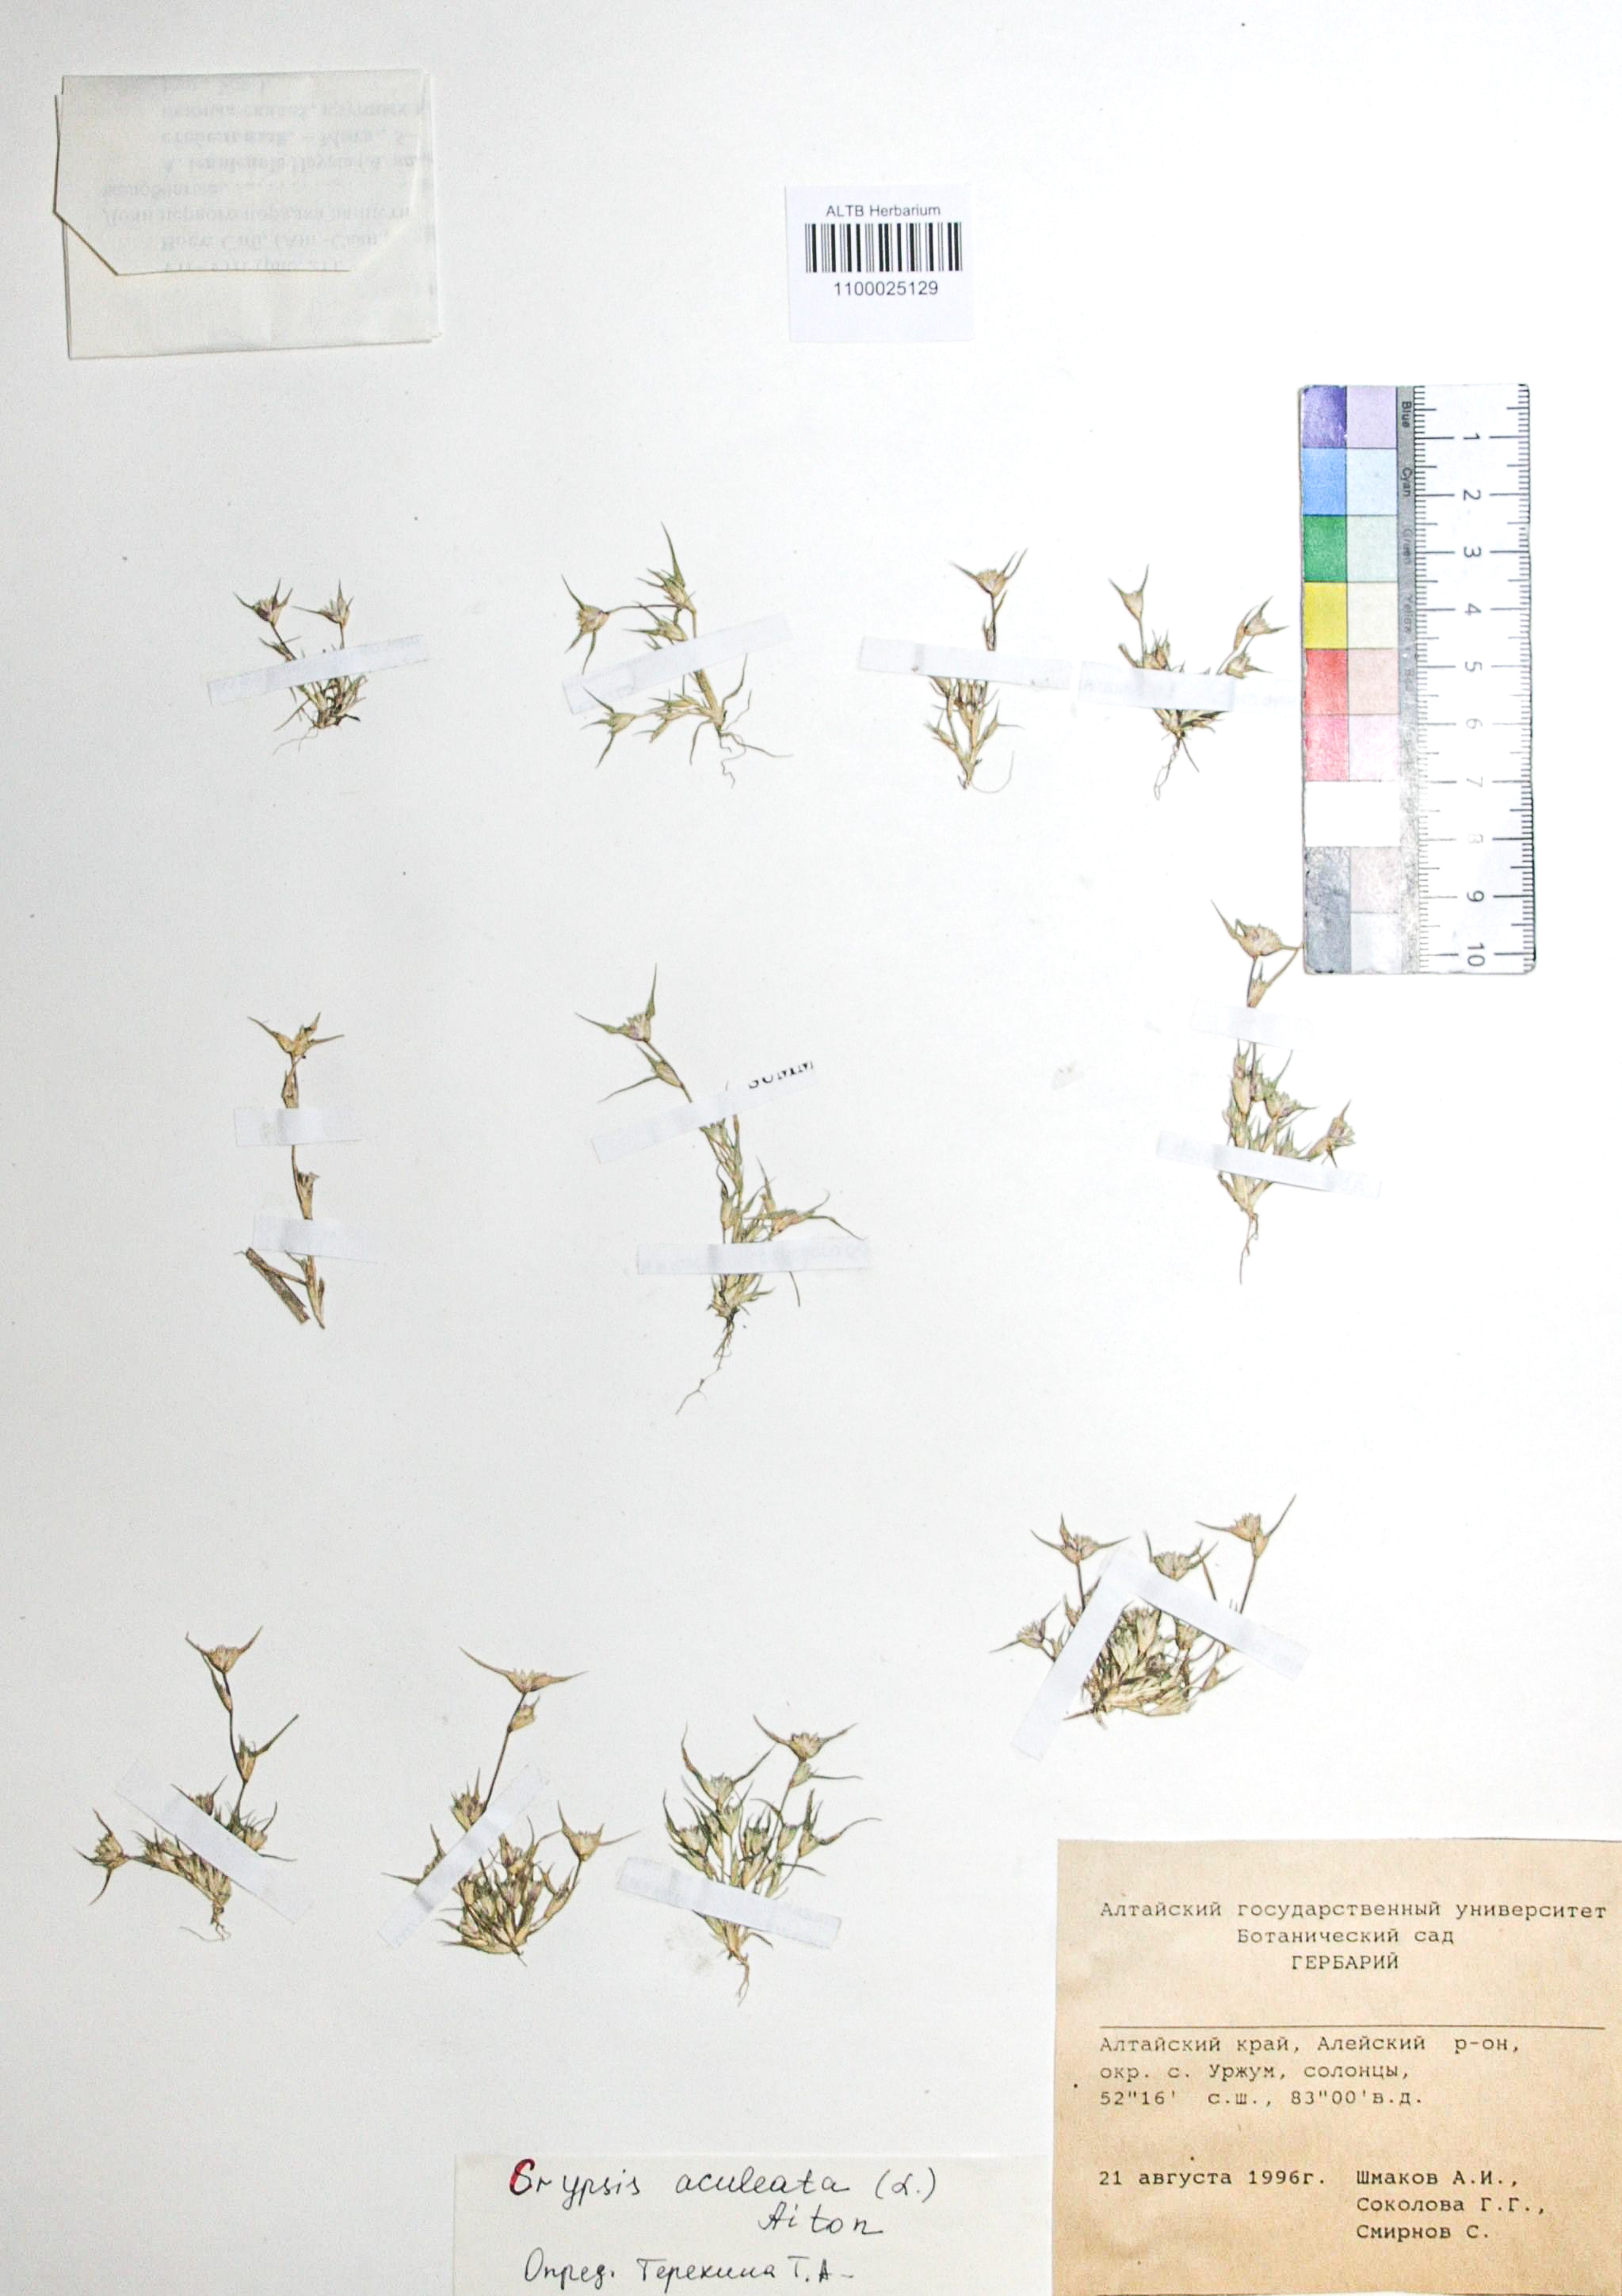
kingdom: Plantae
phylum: Tracheophyta
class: Liliopsida
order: Poales
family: Poaceae
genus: Sporobolus
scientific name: Sporobolus aculeatus
